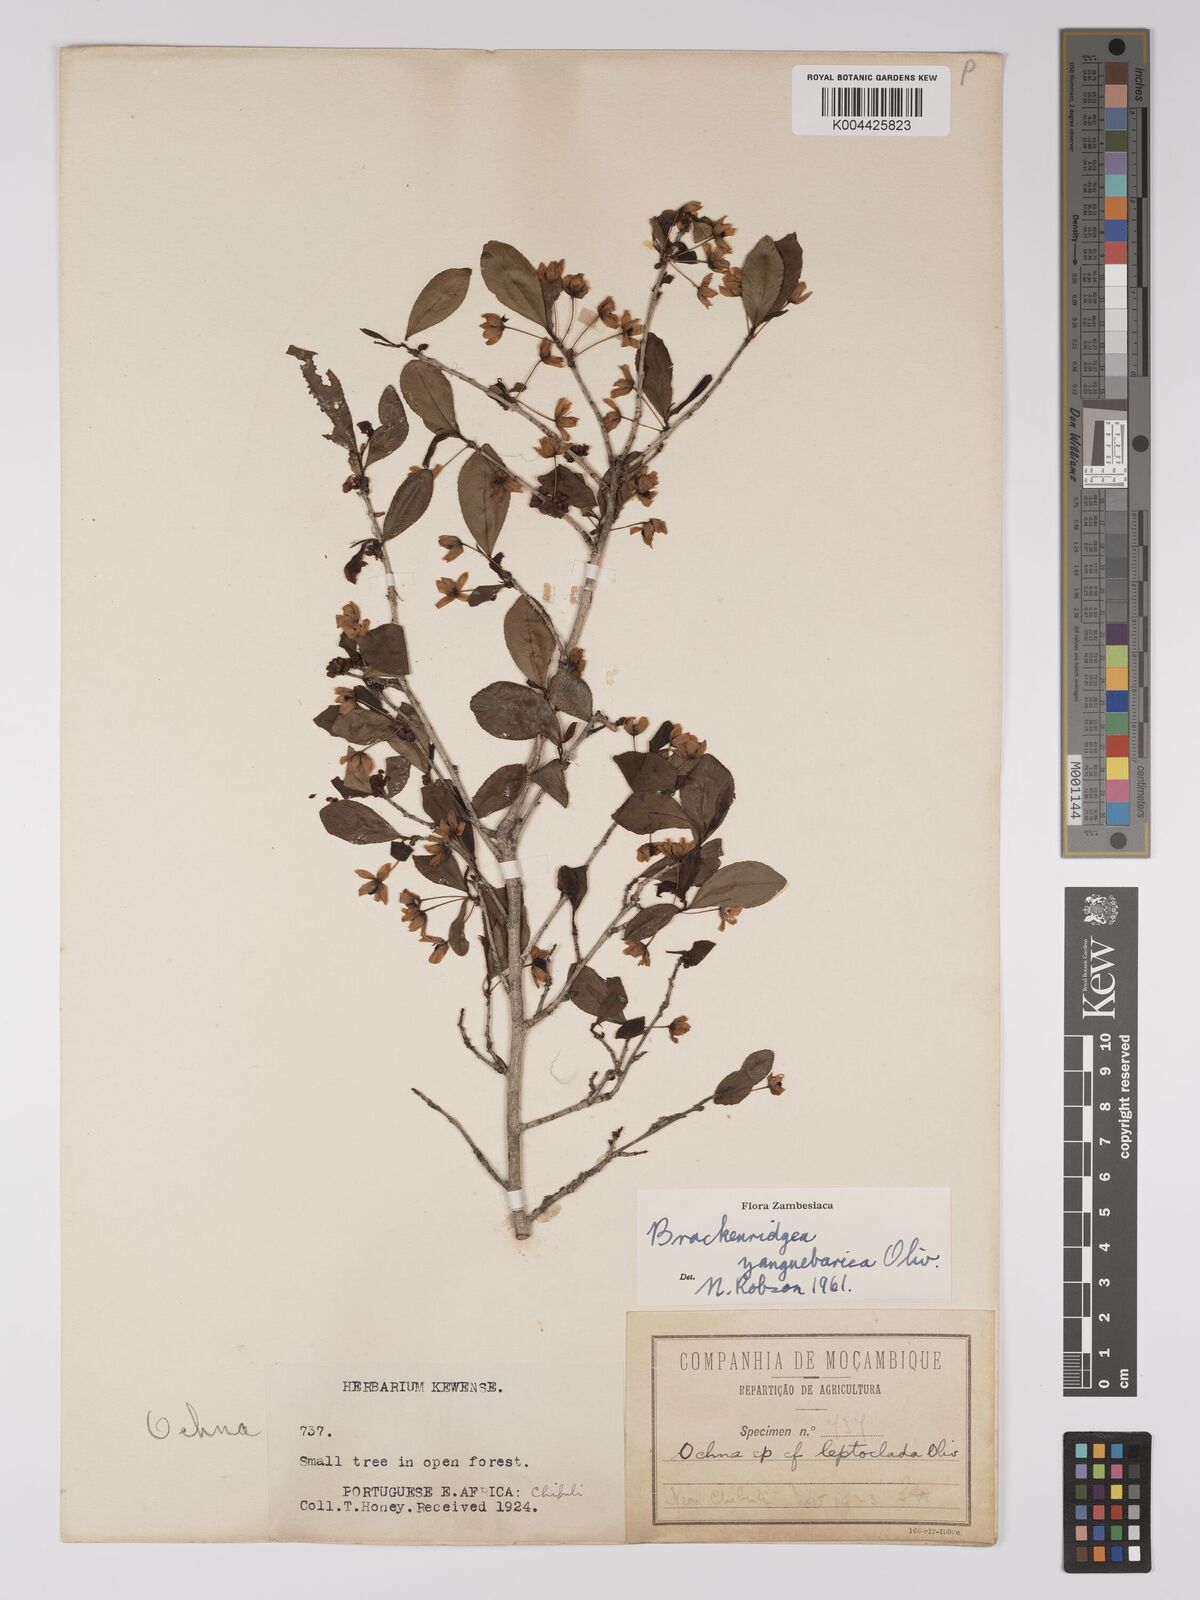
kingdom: Plantae
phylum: Tracheophyta
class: Magnoliopsida
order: Malpighiales
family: Ochnaceae
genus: Brackenridgea
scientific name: Brackenridgea zanguebarica
